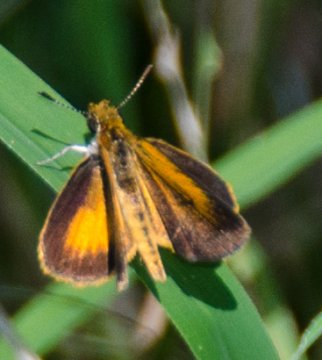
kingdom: Animalia
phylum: Arthropoda
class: Insecta
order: Lepidoptera
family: Hesperiidae
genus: Ancyloxypha
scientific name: Ancyloxypha numitor
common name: Least Skipper
